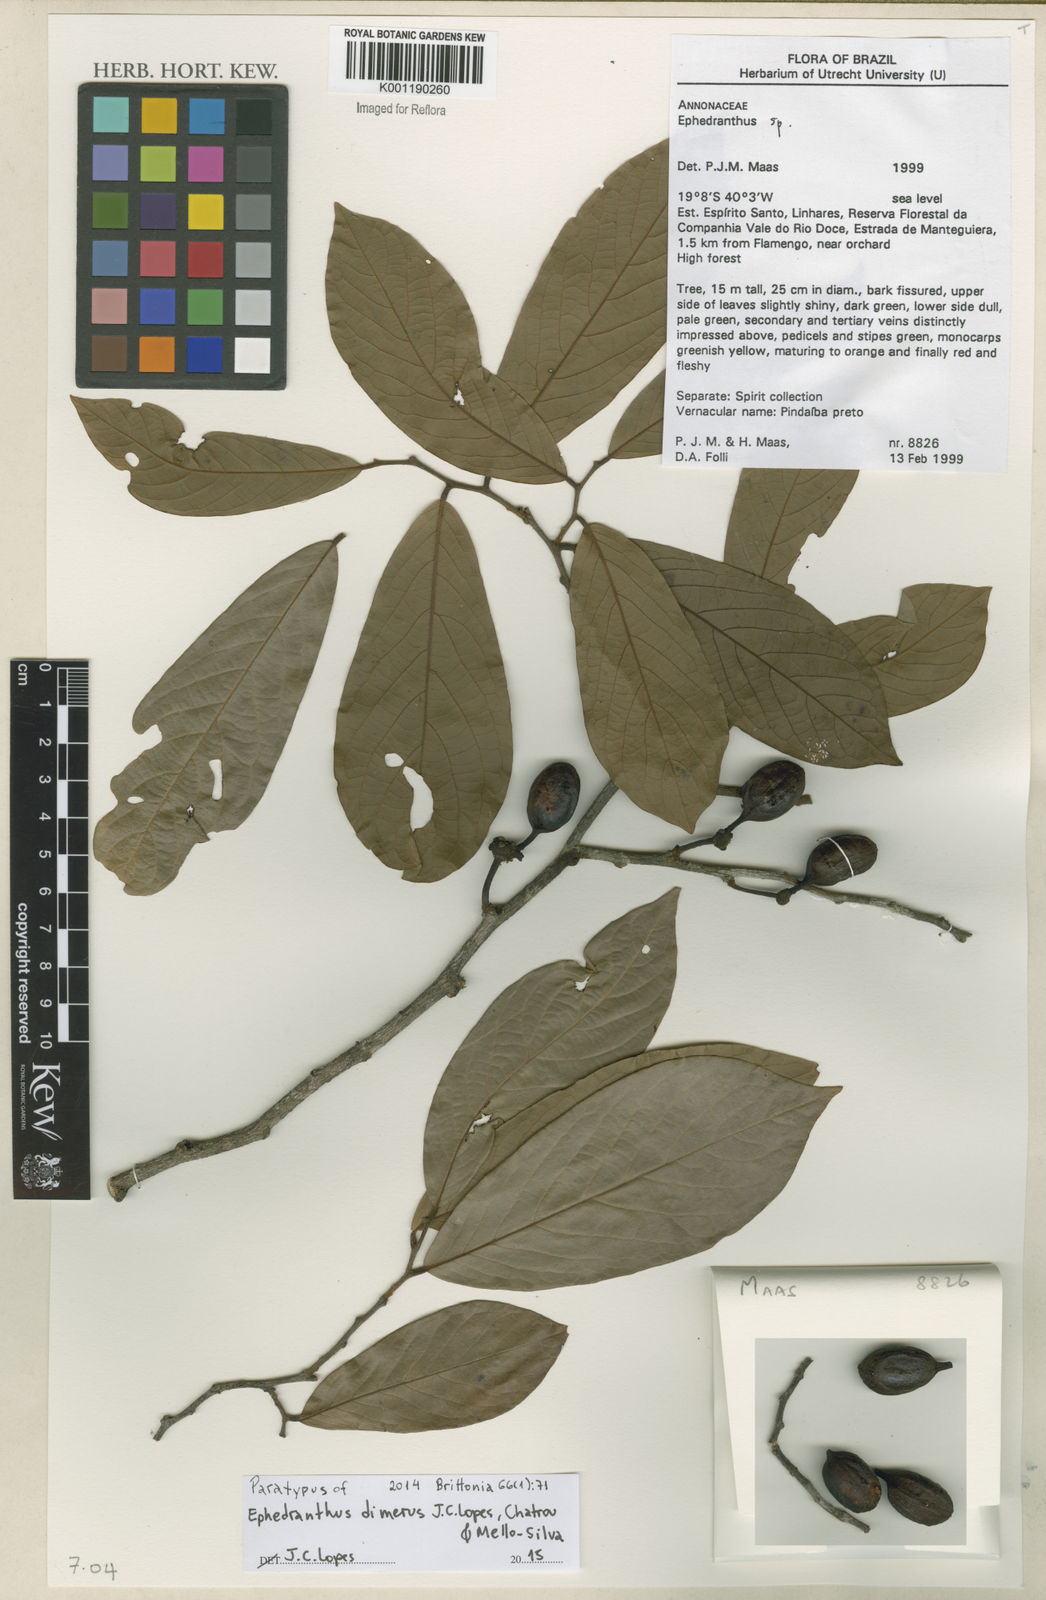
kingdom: Plantae
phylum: Tracheophyta
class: Magnoliopsida
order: Magnoliales
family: Annonaceae
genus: Ephedranthus
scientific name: Ephedranthus
